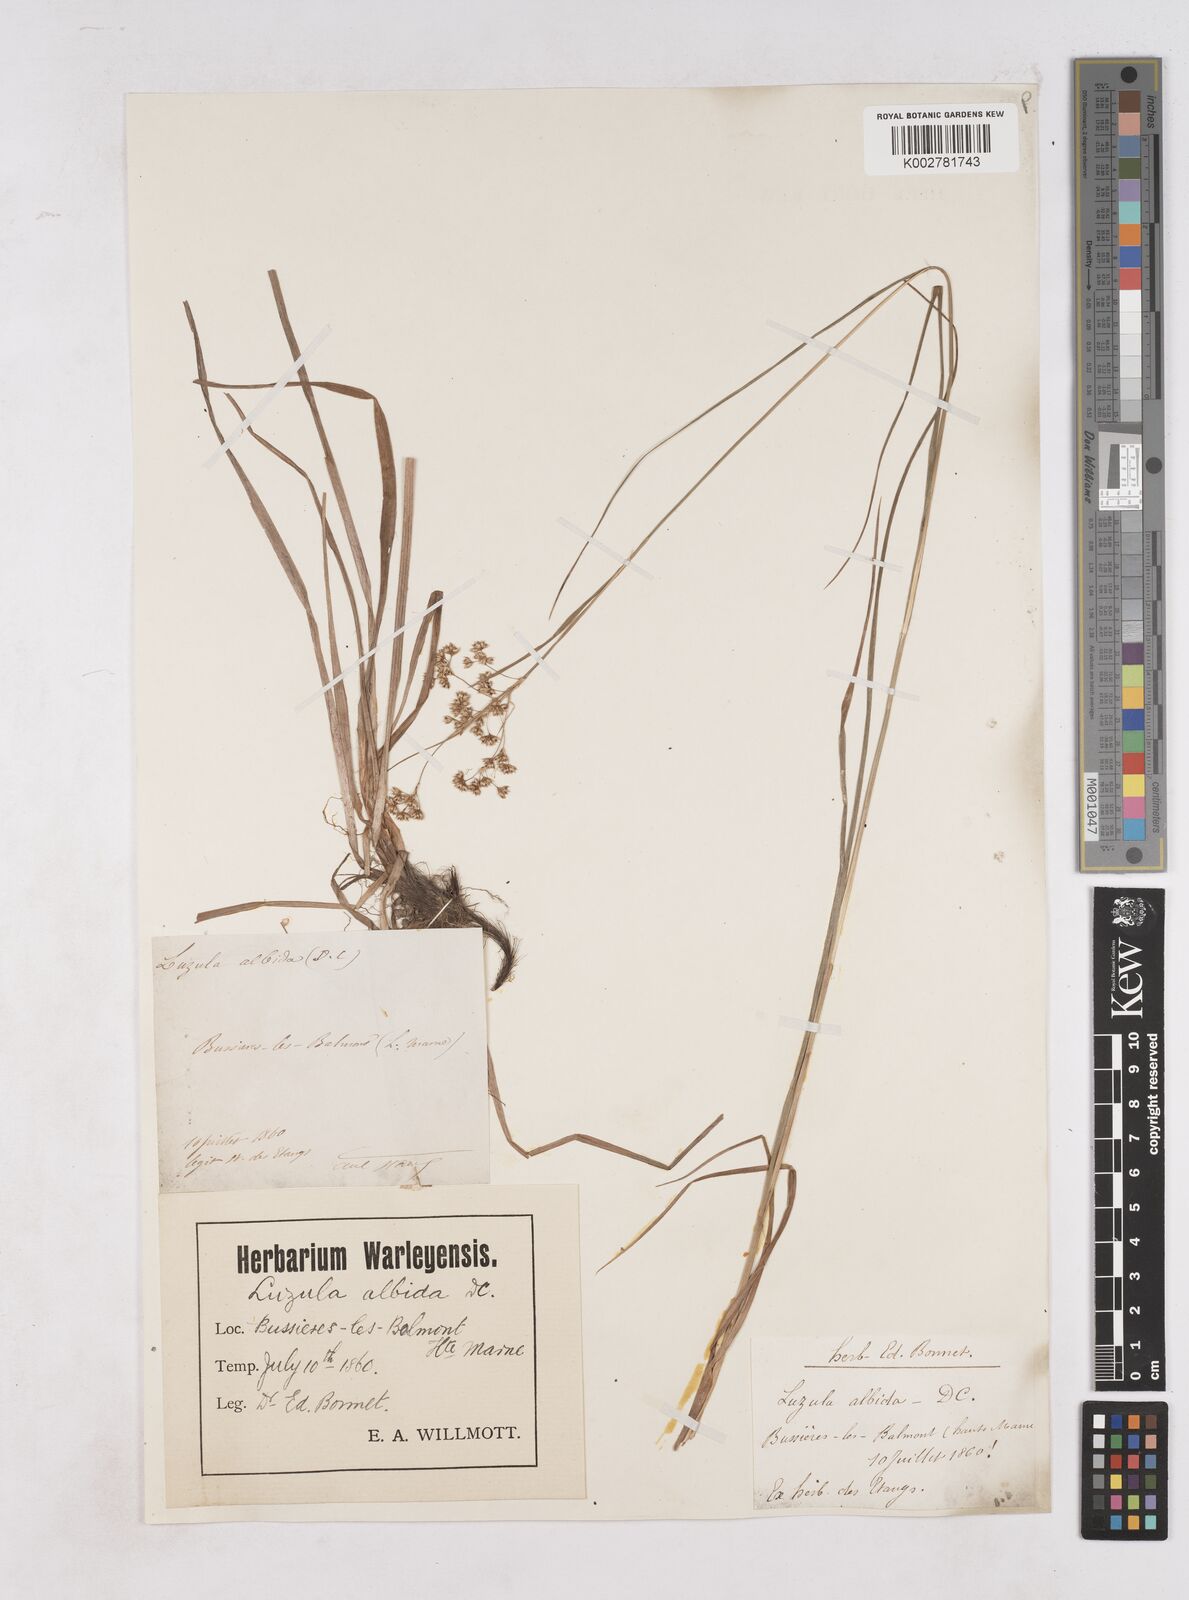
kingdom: Plantae
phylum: Tracheophyta
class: Liliopsida
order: Poales
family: Juncaceae
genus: Luzula
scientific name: Luzula luzuloides
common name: White wood-rush
